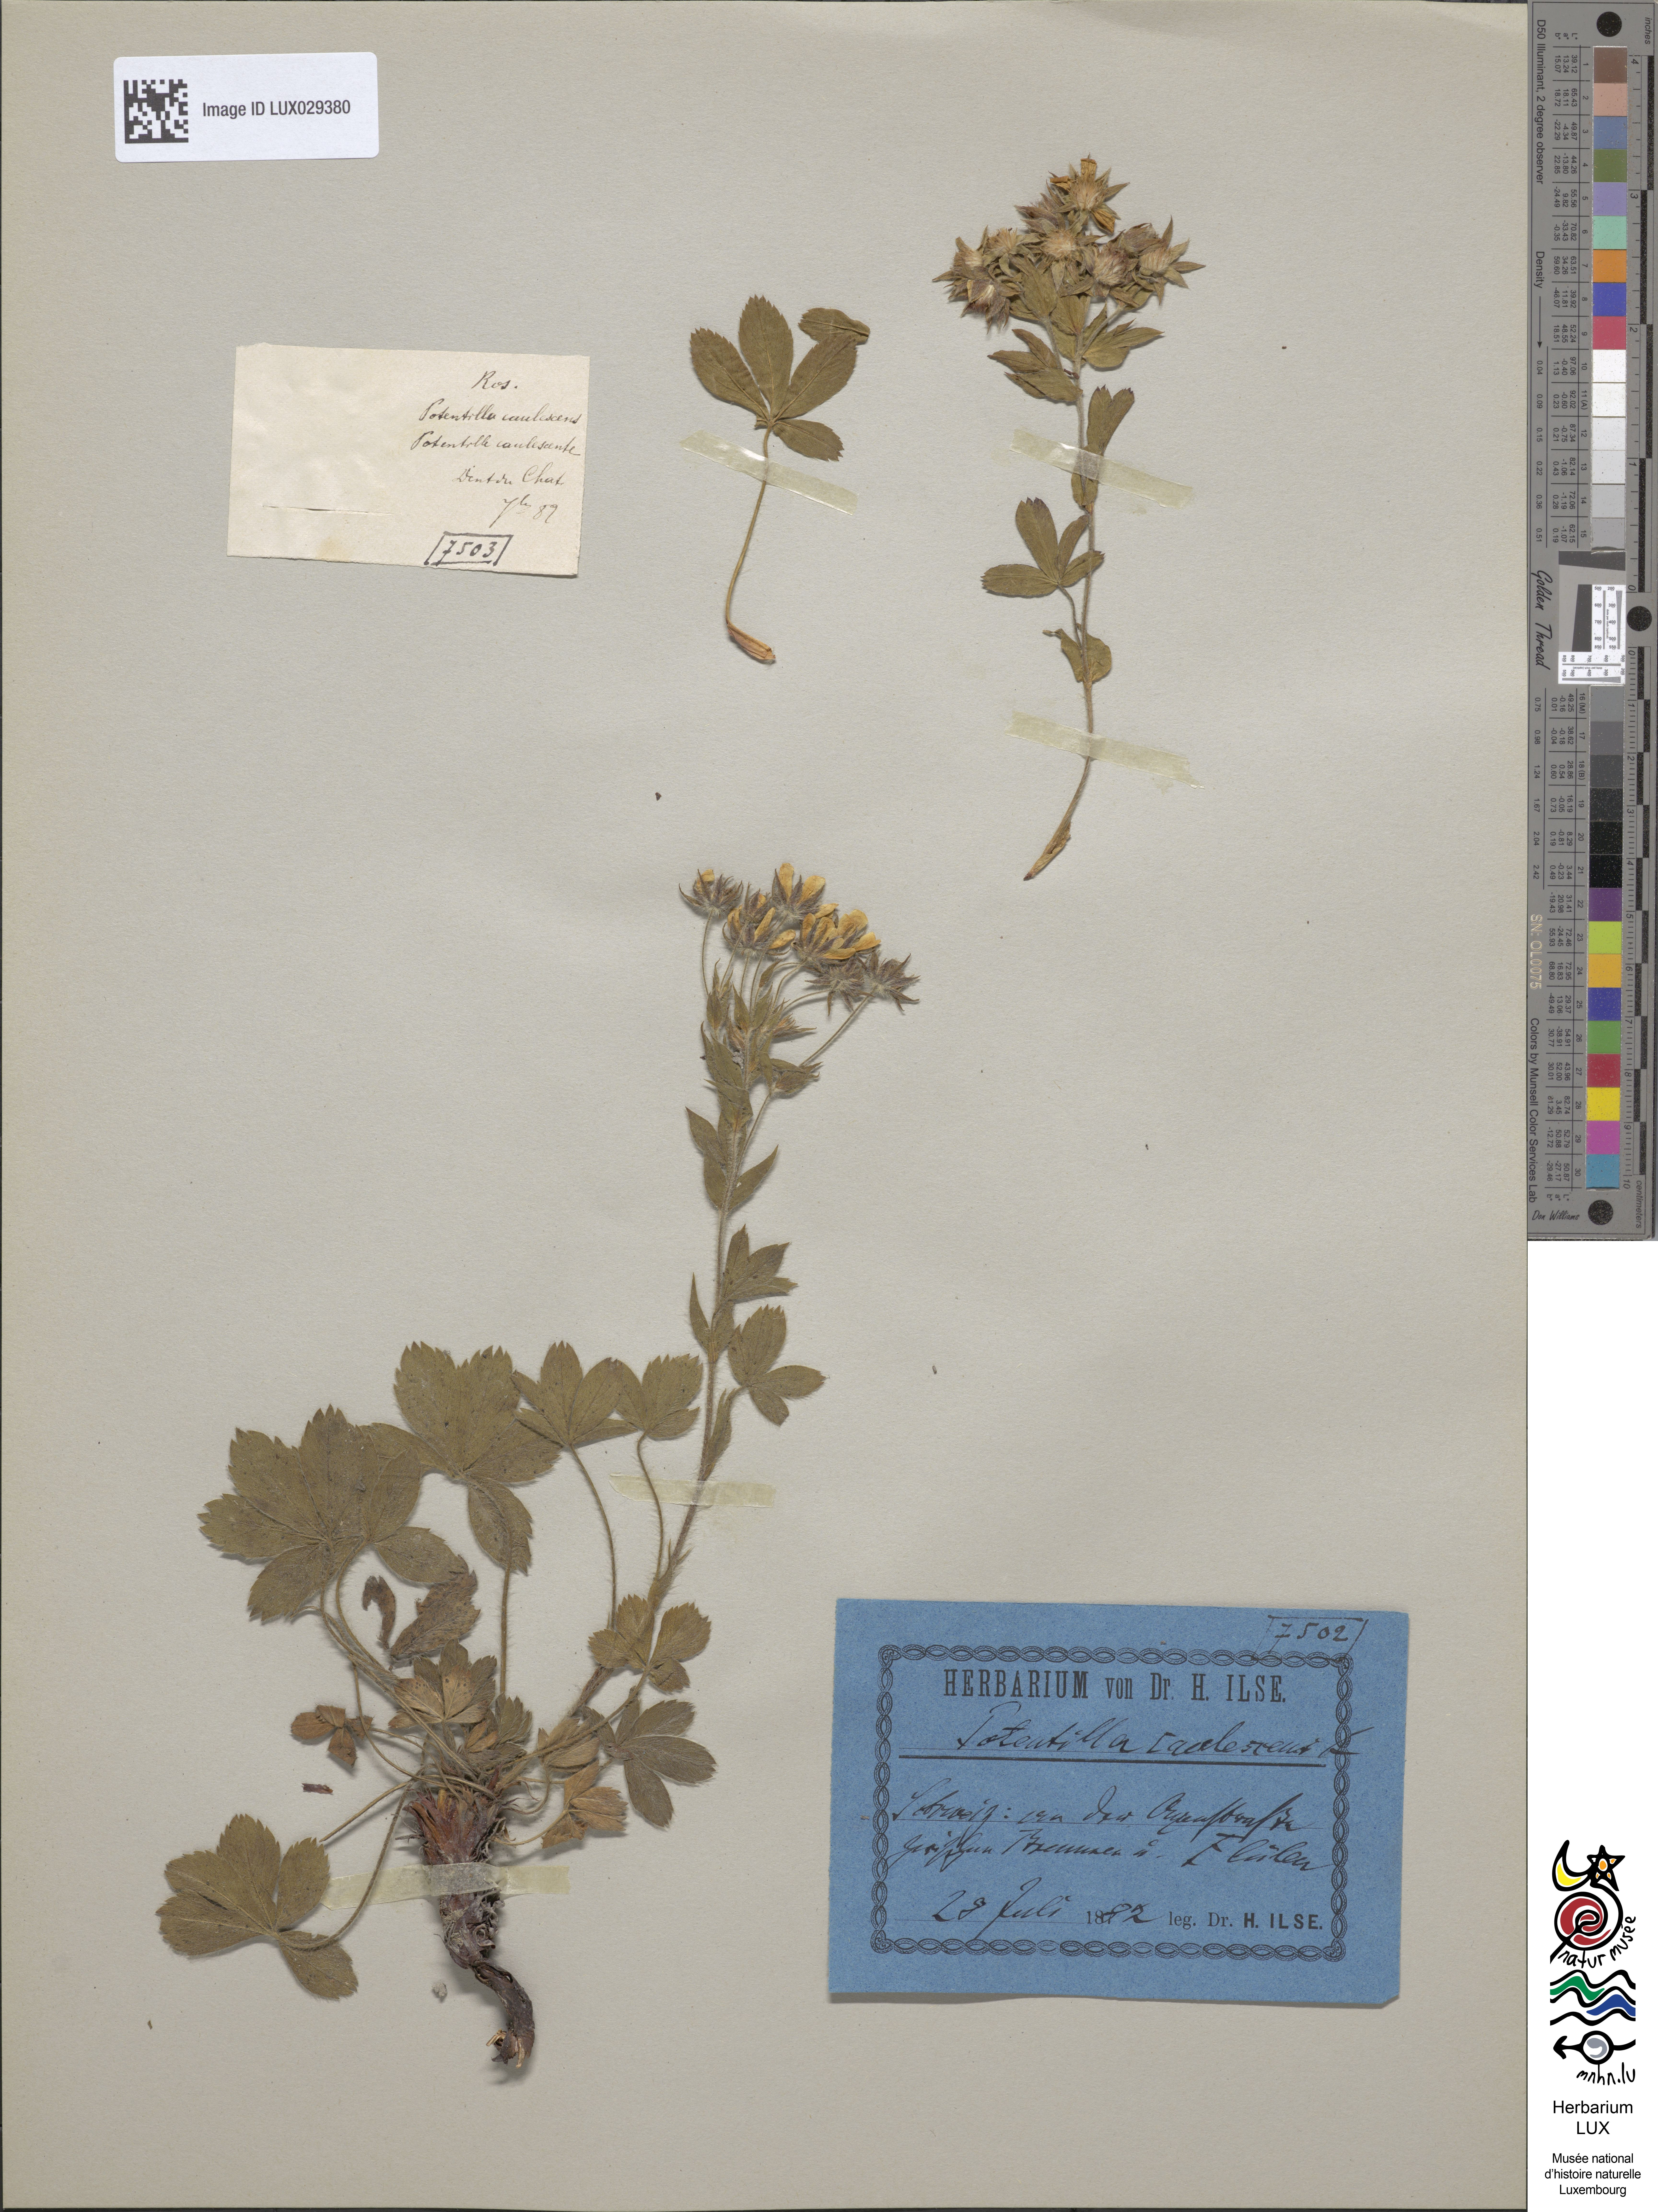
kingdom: Plantae
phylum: Tracheophyta
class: Magnoliopsida
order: Rosales
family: Rosaceae
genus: Potentilla
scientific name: Potentilla caulescens
